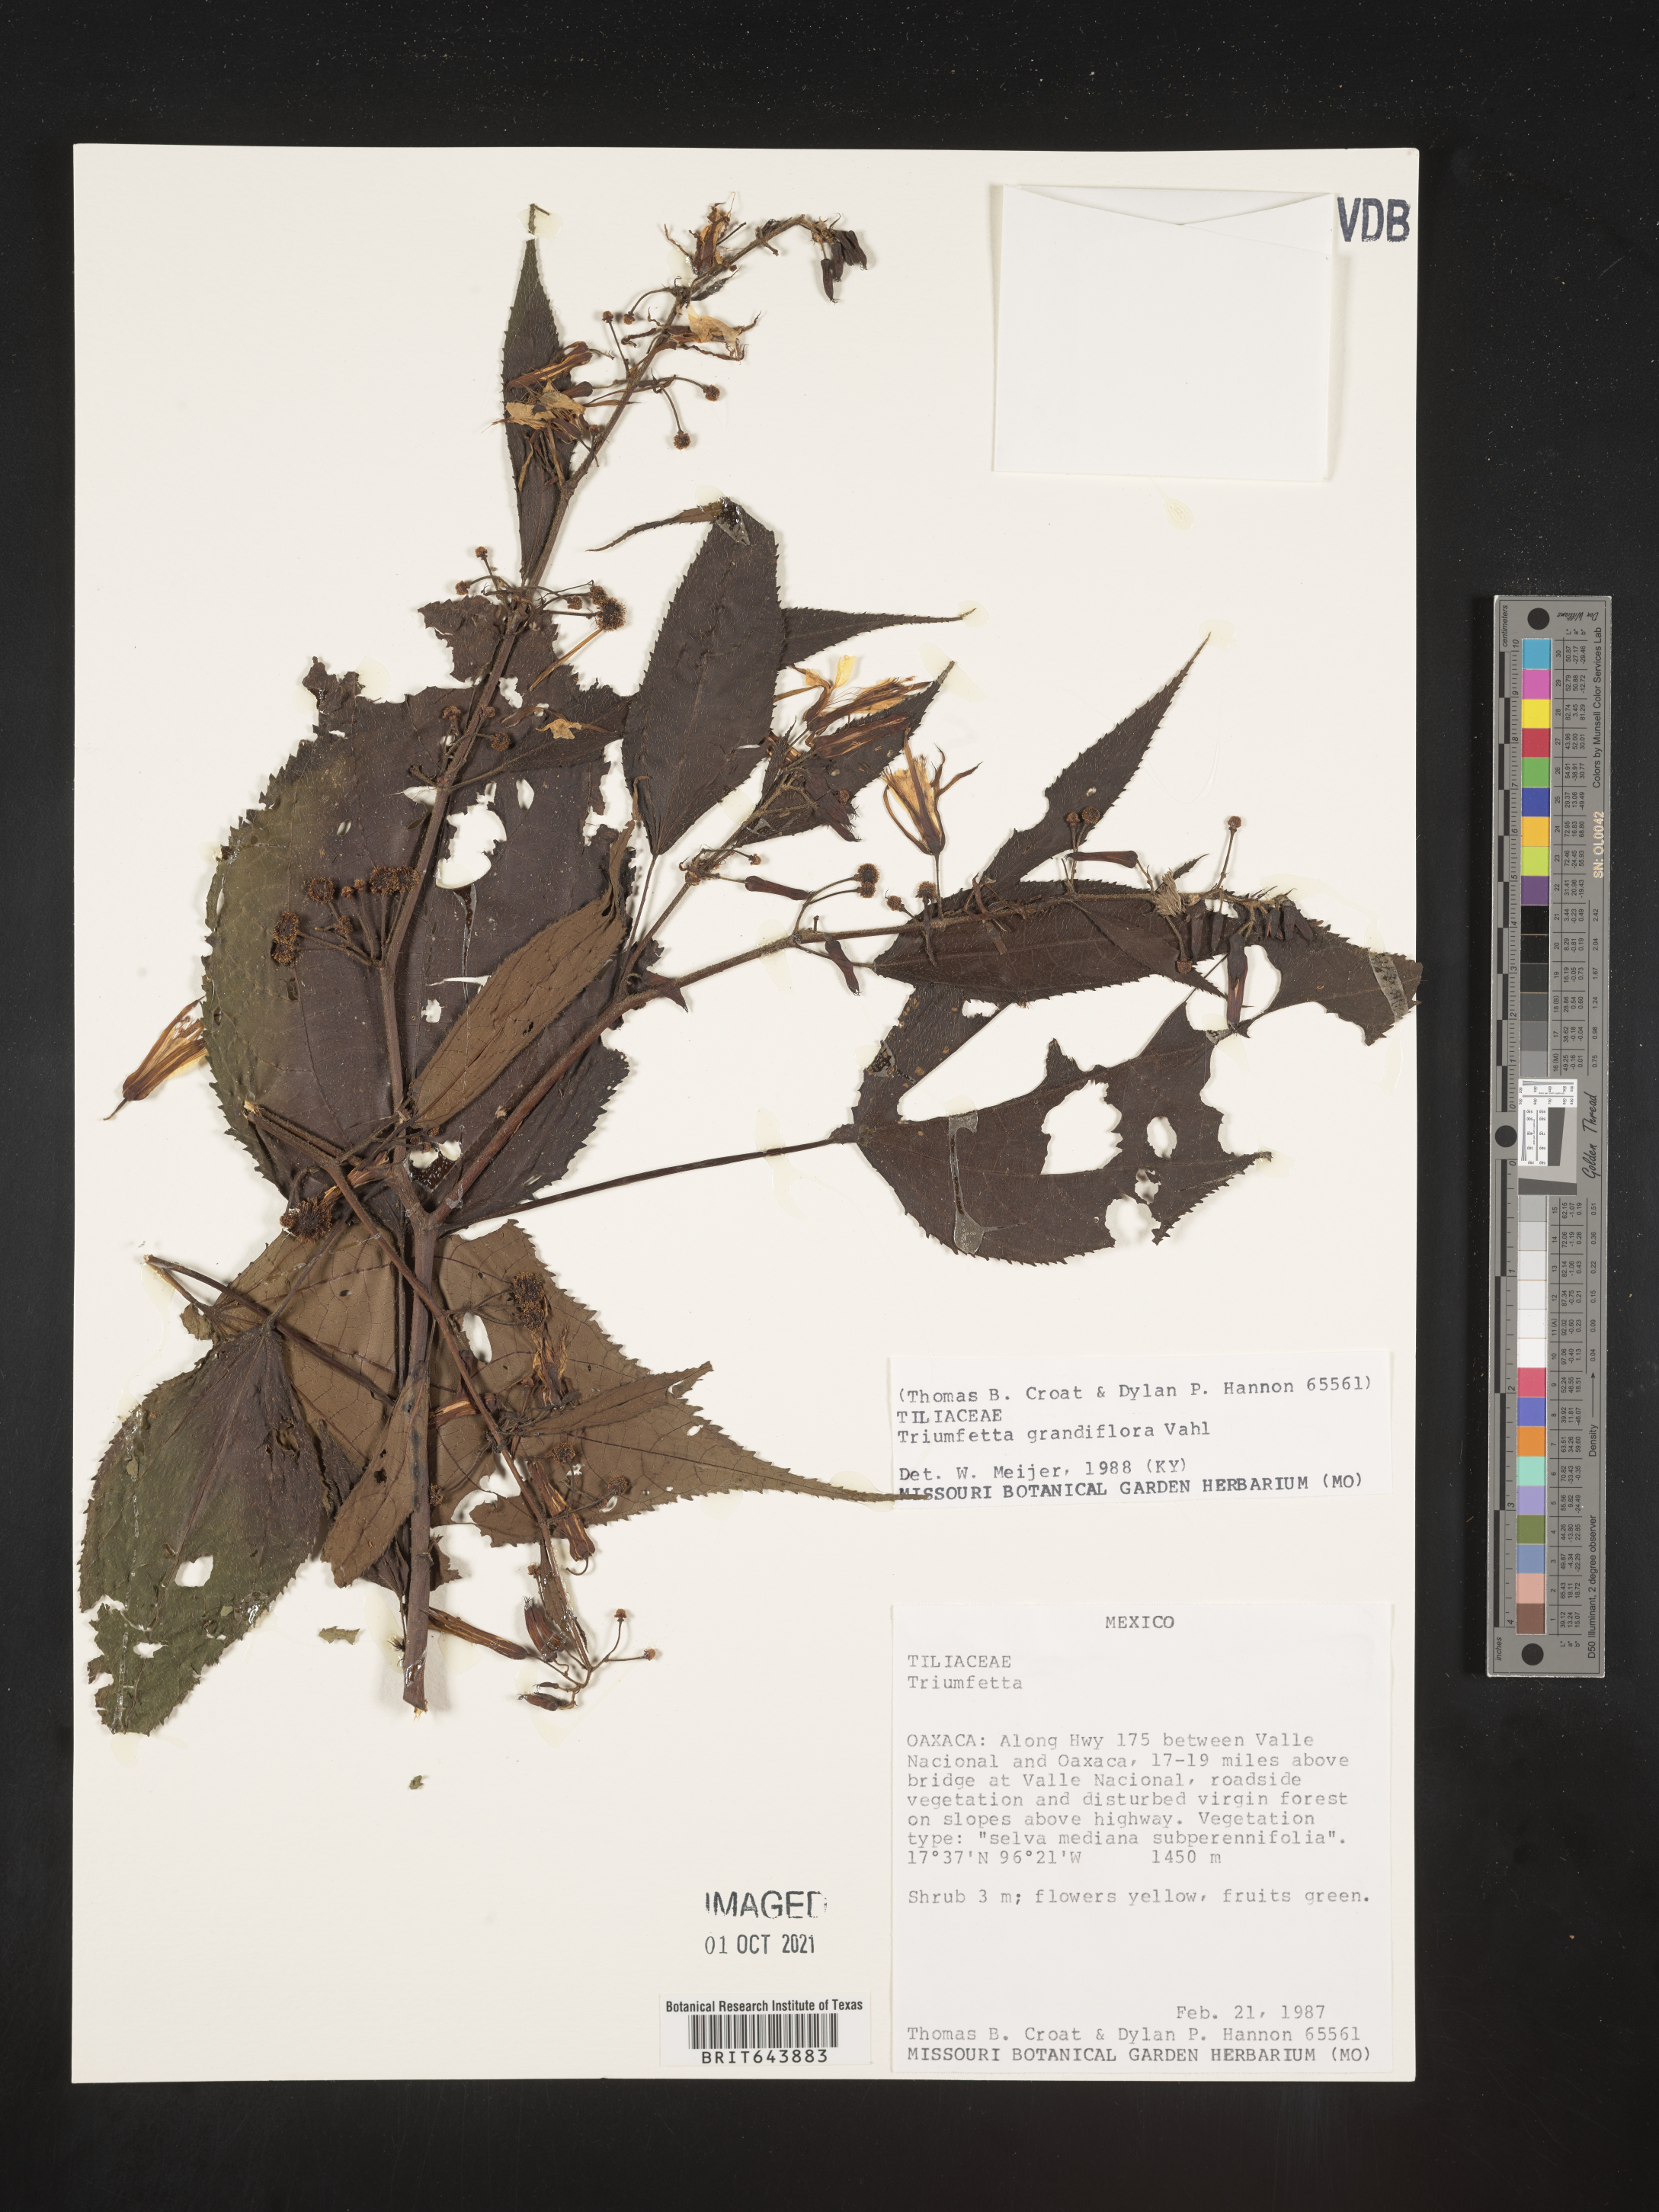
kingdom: Plantae
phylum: Tracheophyta
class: Magnoliopsida
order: Malvales
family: Malvaceae
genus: Triumfetta
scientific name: Triumfetta
